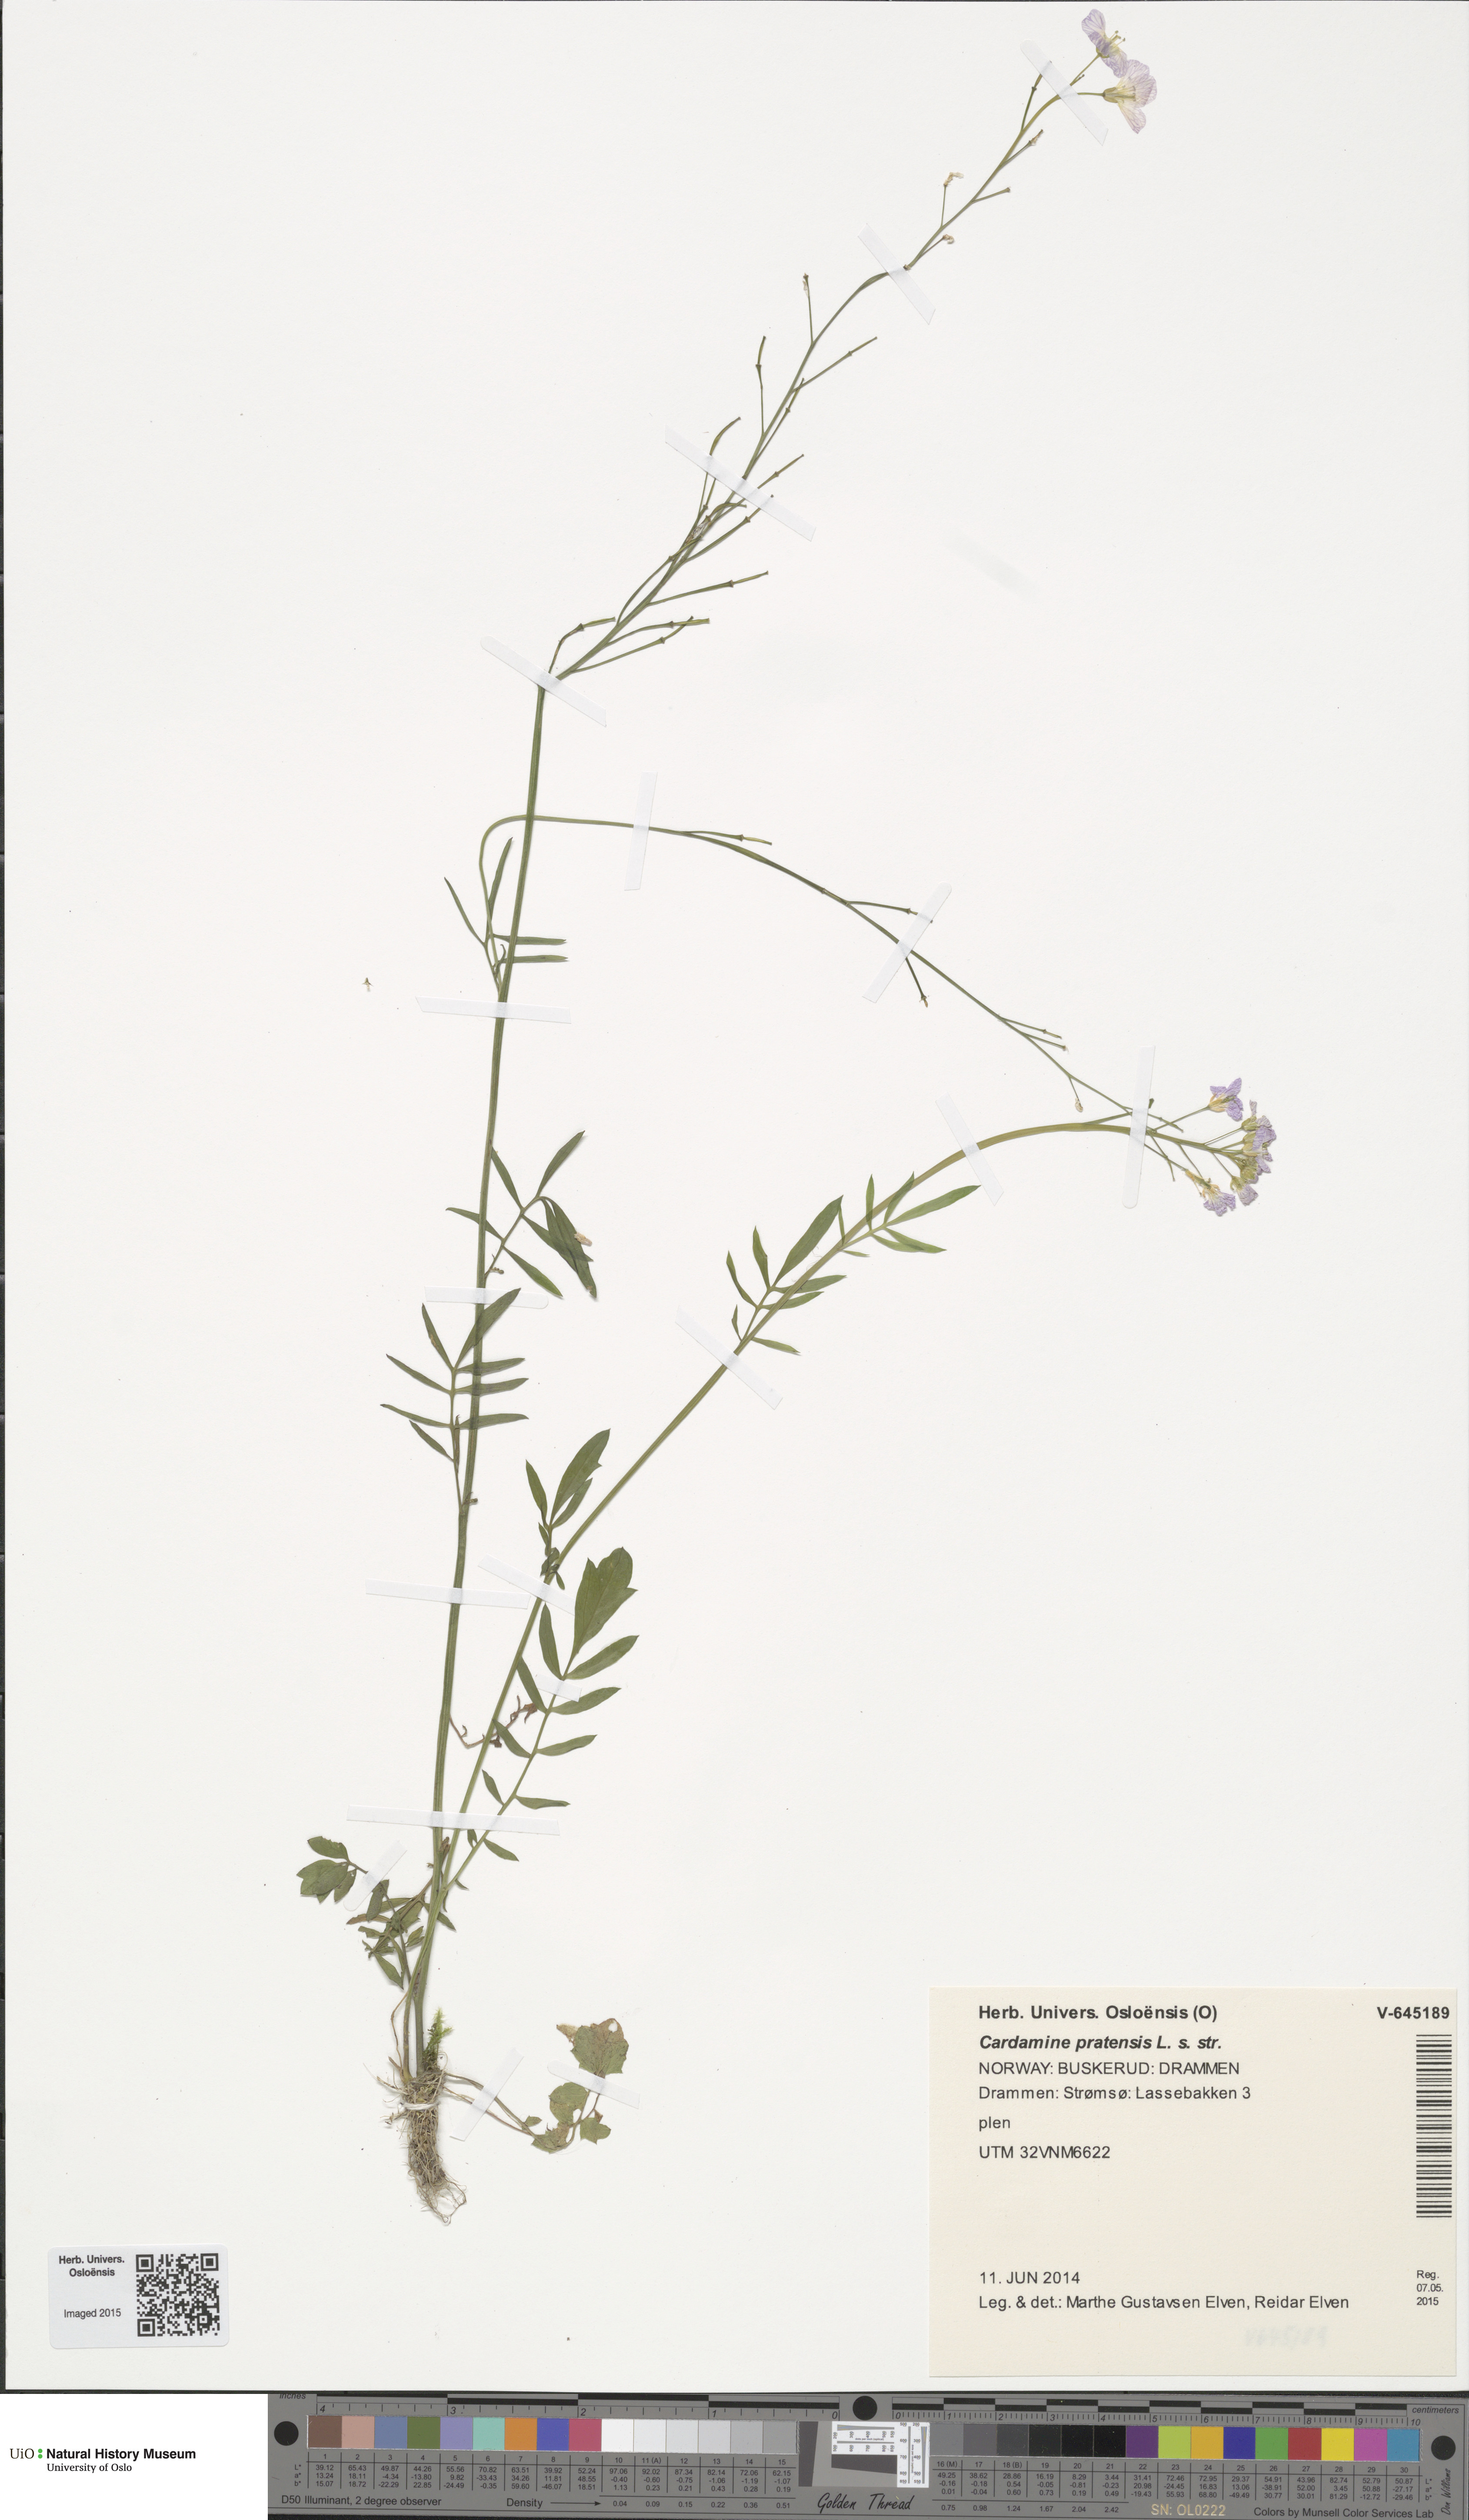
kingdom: Plantae
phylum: Tracheophyta
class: Magnoliopsida
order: Brassicales
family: Brassicaceae
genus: Cardamine
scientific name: Cardamine pratensis
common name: Cuckoo flower
